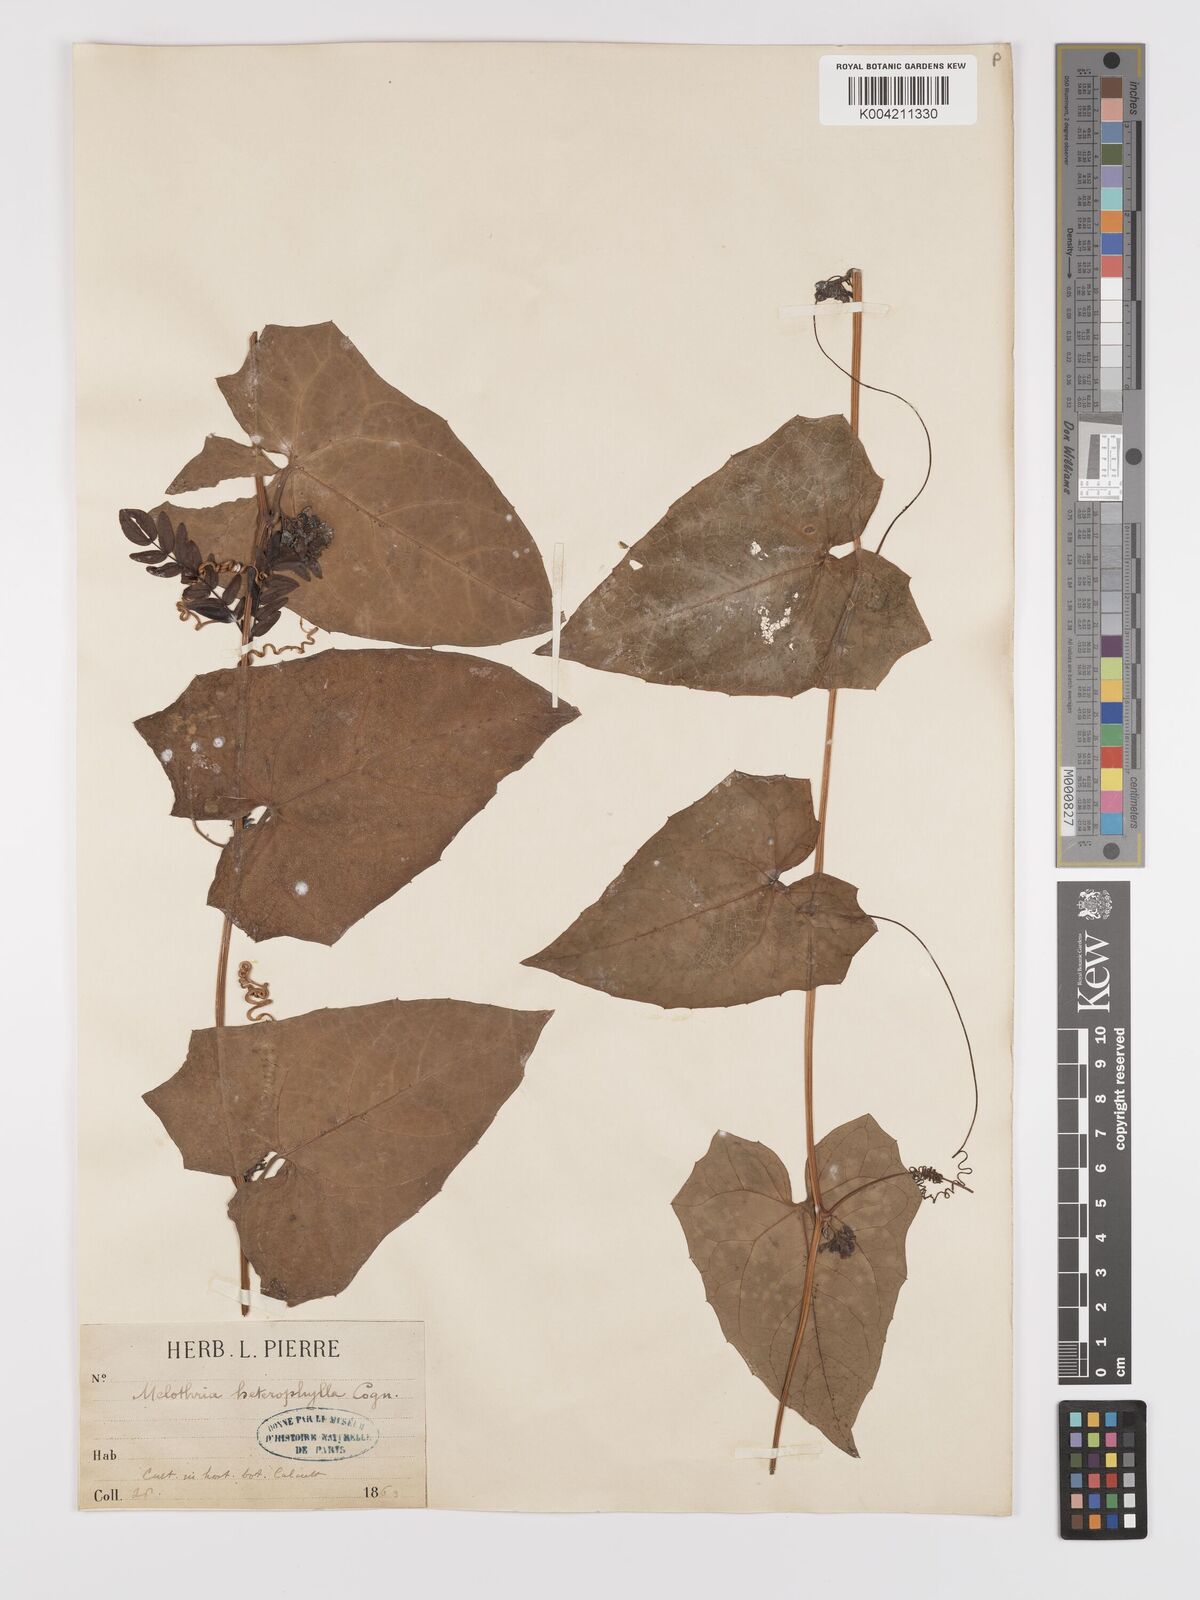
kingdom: Plantae
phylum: Tracheophyta
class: Magnoliopsida
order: Cucurbitales
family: Cucurbitaceae
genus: Solena
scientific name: Solena amplexicaulis
